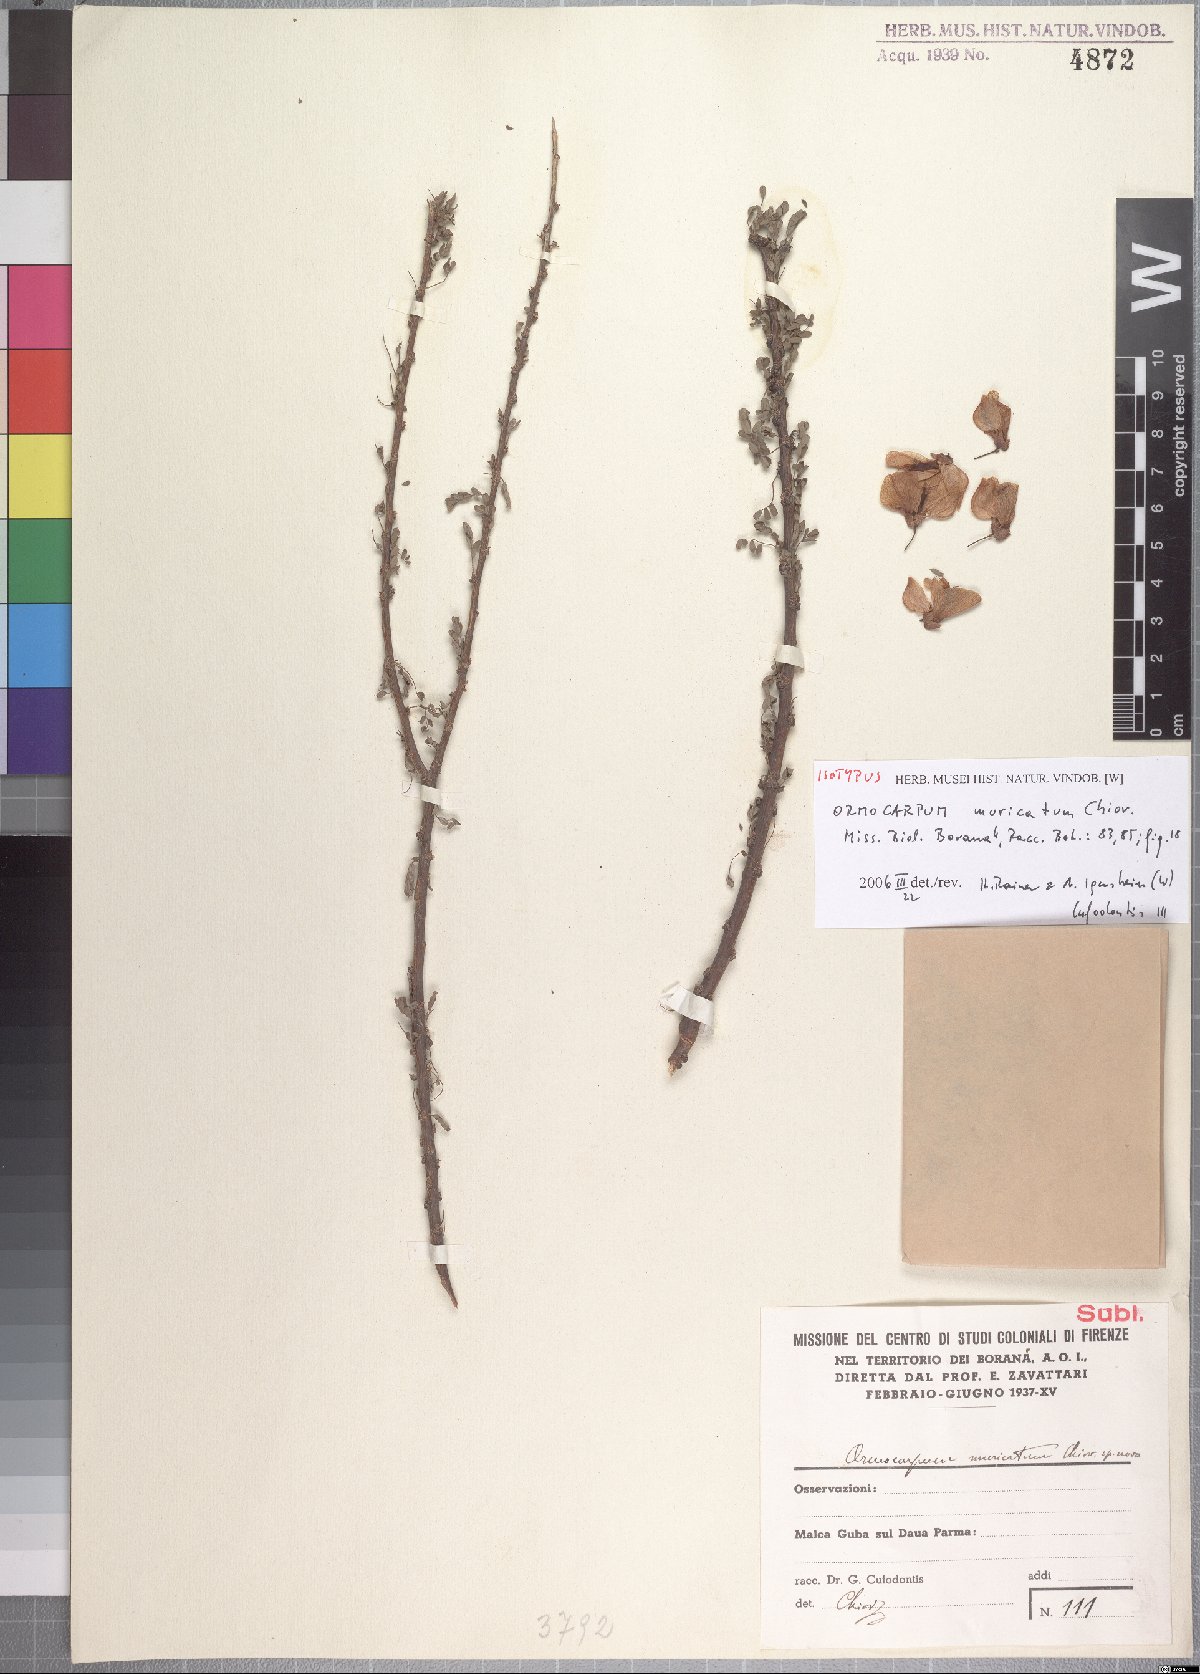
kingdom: Plantae
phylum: Tracheophyta
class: Magnoliopsida
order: Fabales
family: Fabaceae
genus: Ormocarpum
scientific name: Ormocarpum muricatum
